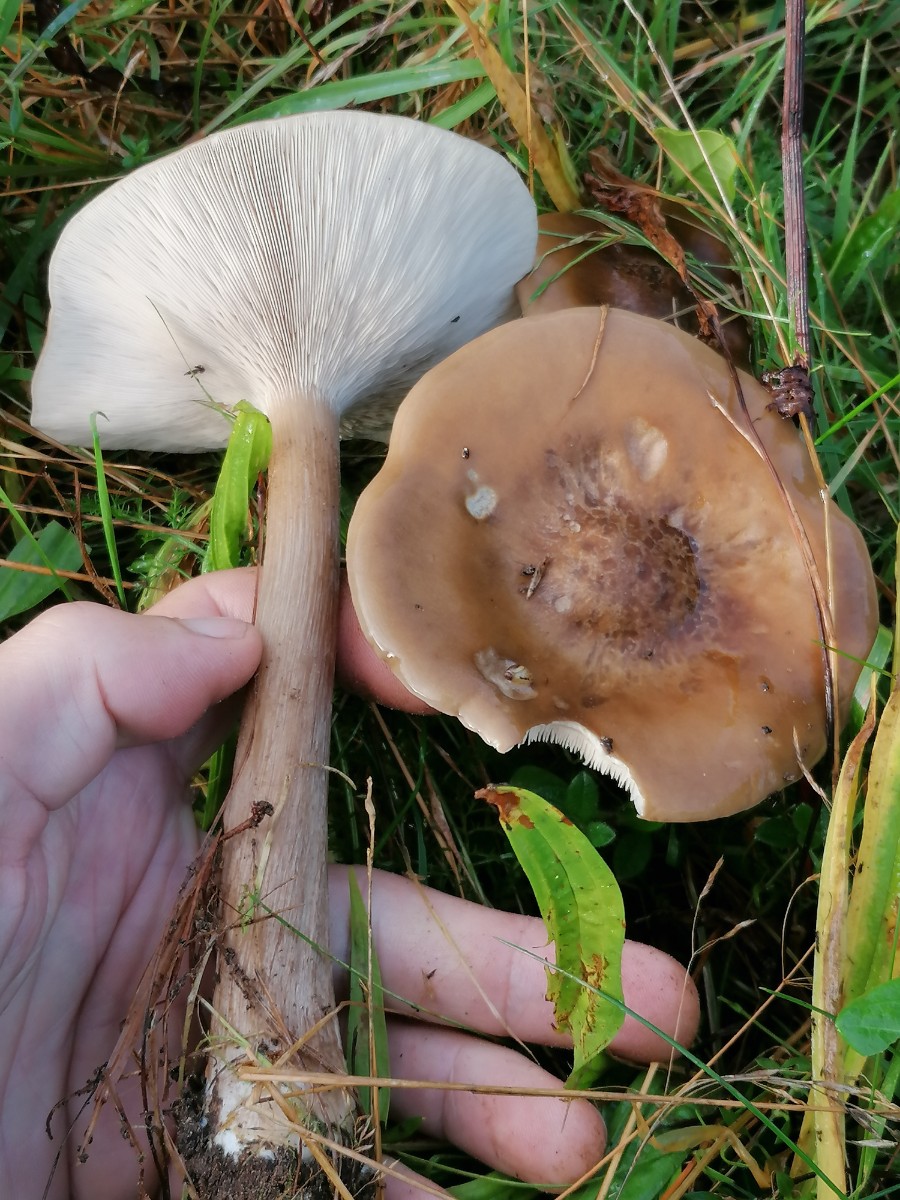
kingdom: Fungi
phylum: Basidiomycota
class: Agaricomycetes
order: Agaricales
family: Tricholomataceae
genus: Melanoleuca
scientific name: Melanoleuca grammopodia
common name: stribestokket munkehat
